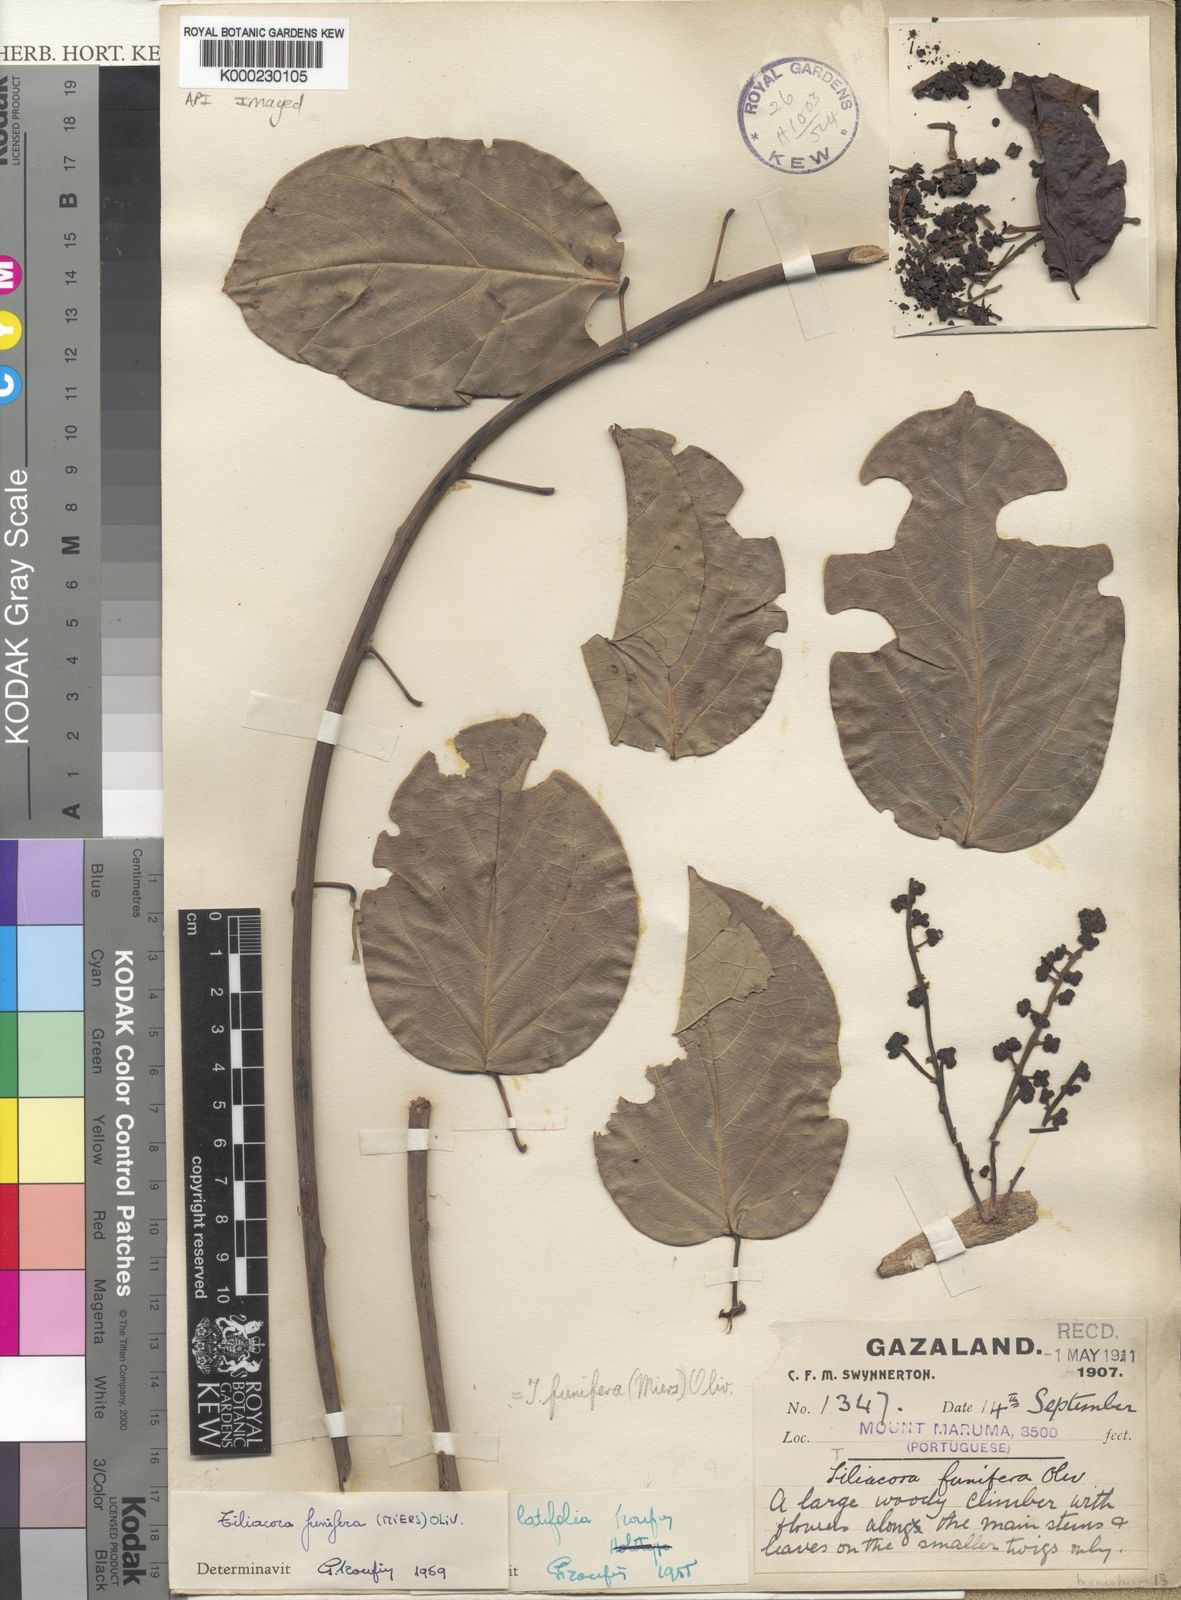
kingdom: Plantae
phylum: Tracheophyta
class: Magnoliopsida
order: Ranunculales
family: Menispermaceae
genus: Tiliacora
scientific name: Tiliacora funifera
